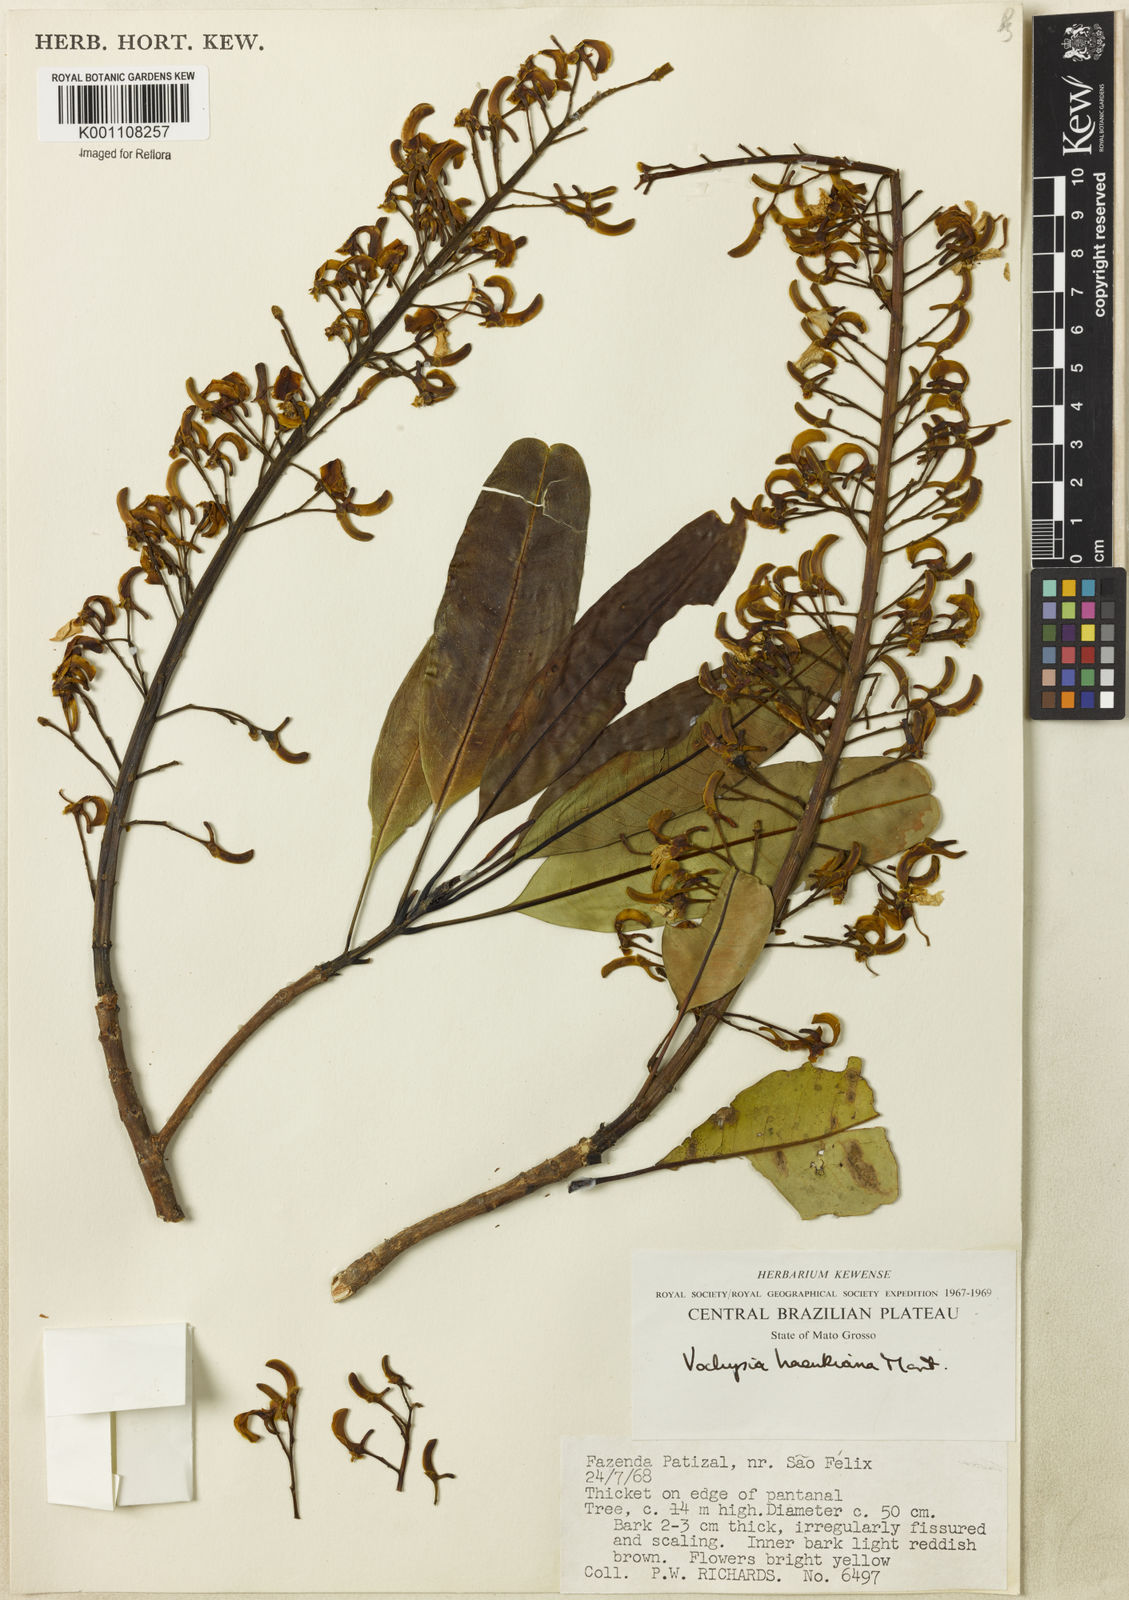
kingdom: Plantae
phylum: Tracheophyta
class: Magnoliopsida
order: Myrtales
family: Vochysiaceae
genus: Vochysia
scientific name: Vochysia haenkeana
